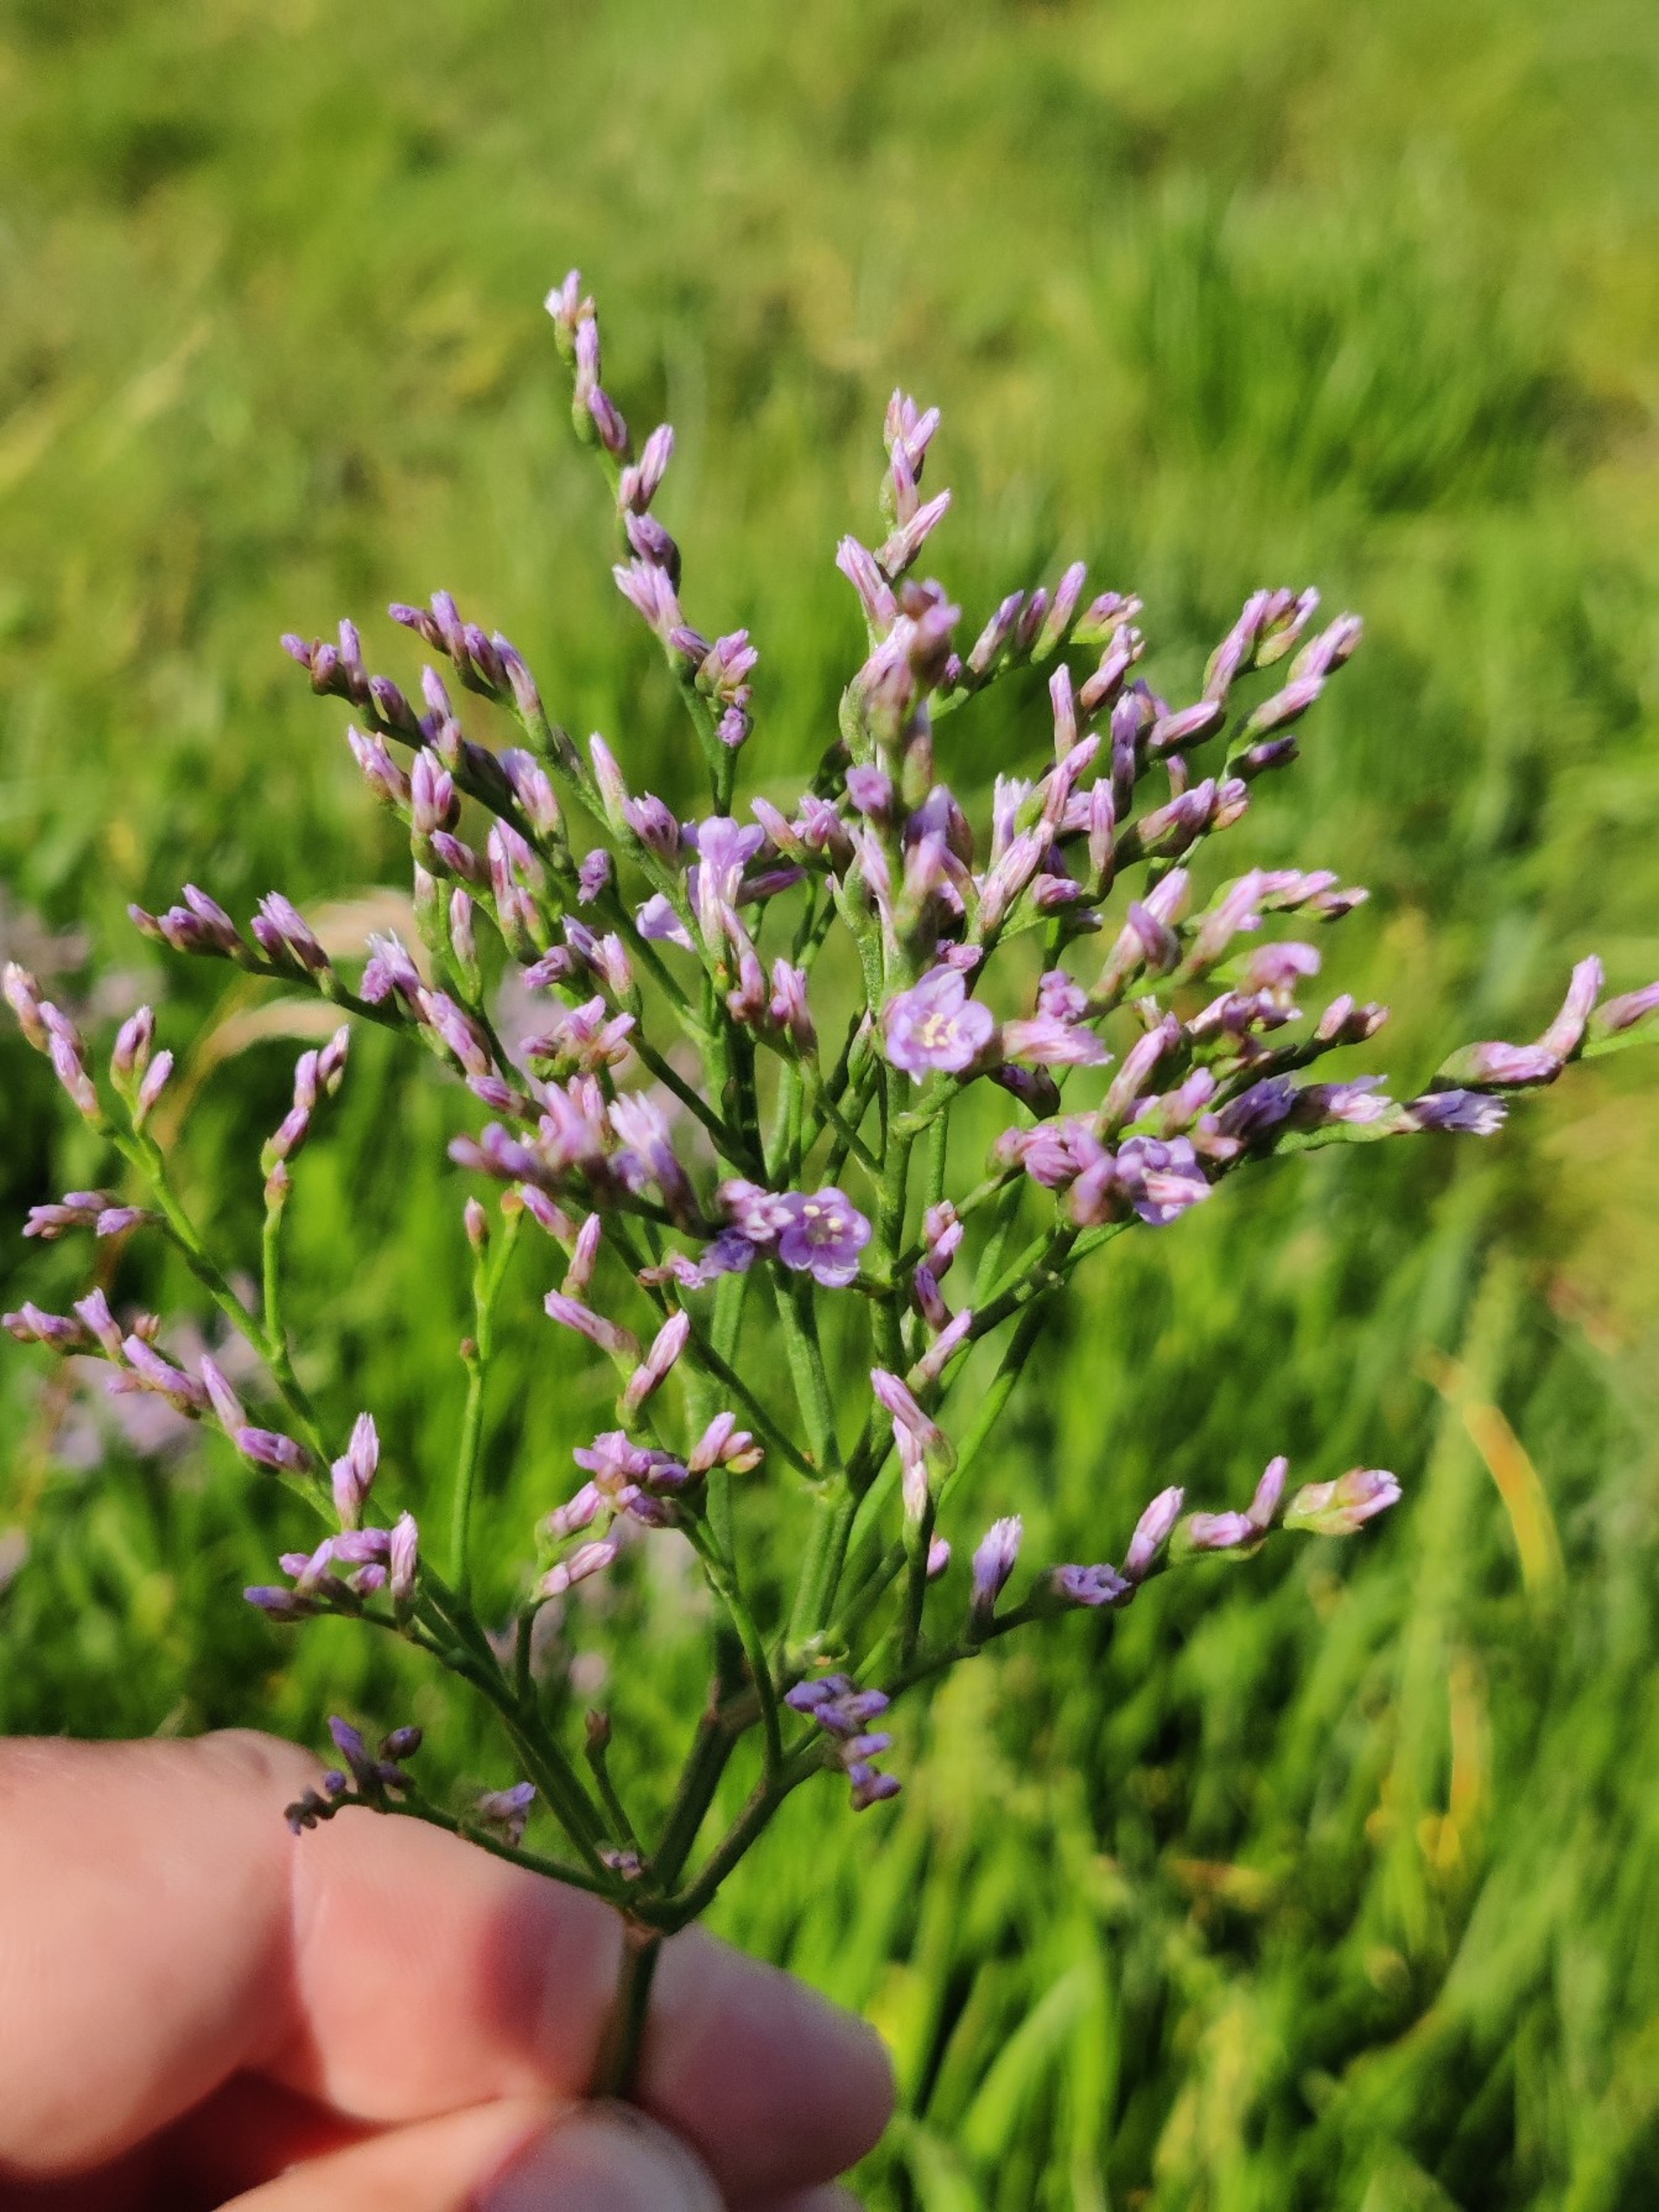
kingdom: Plantae
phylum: Tracheophyta
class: Magnoliopsida
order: Caryophyllales
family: Plumbaginaceae
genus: Limonium
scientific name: Limonium vulgare
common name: Tætblomstret hindebæger
